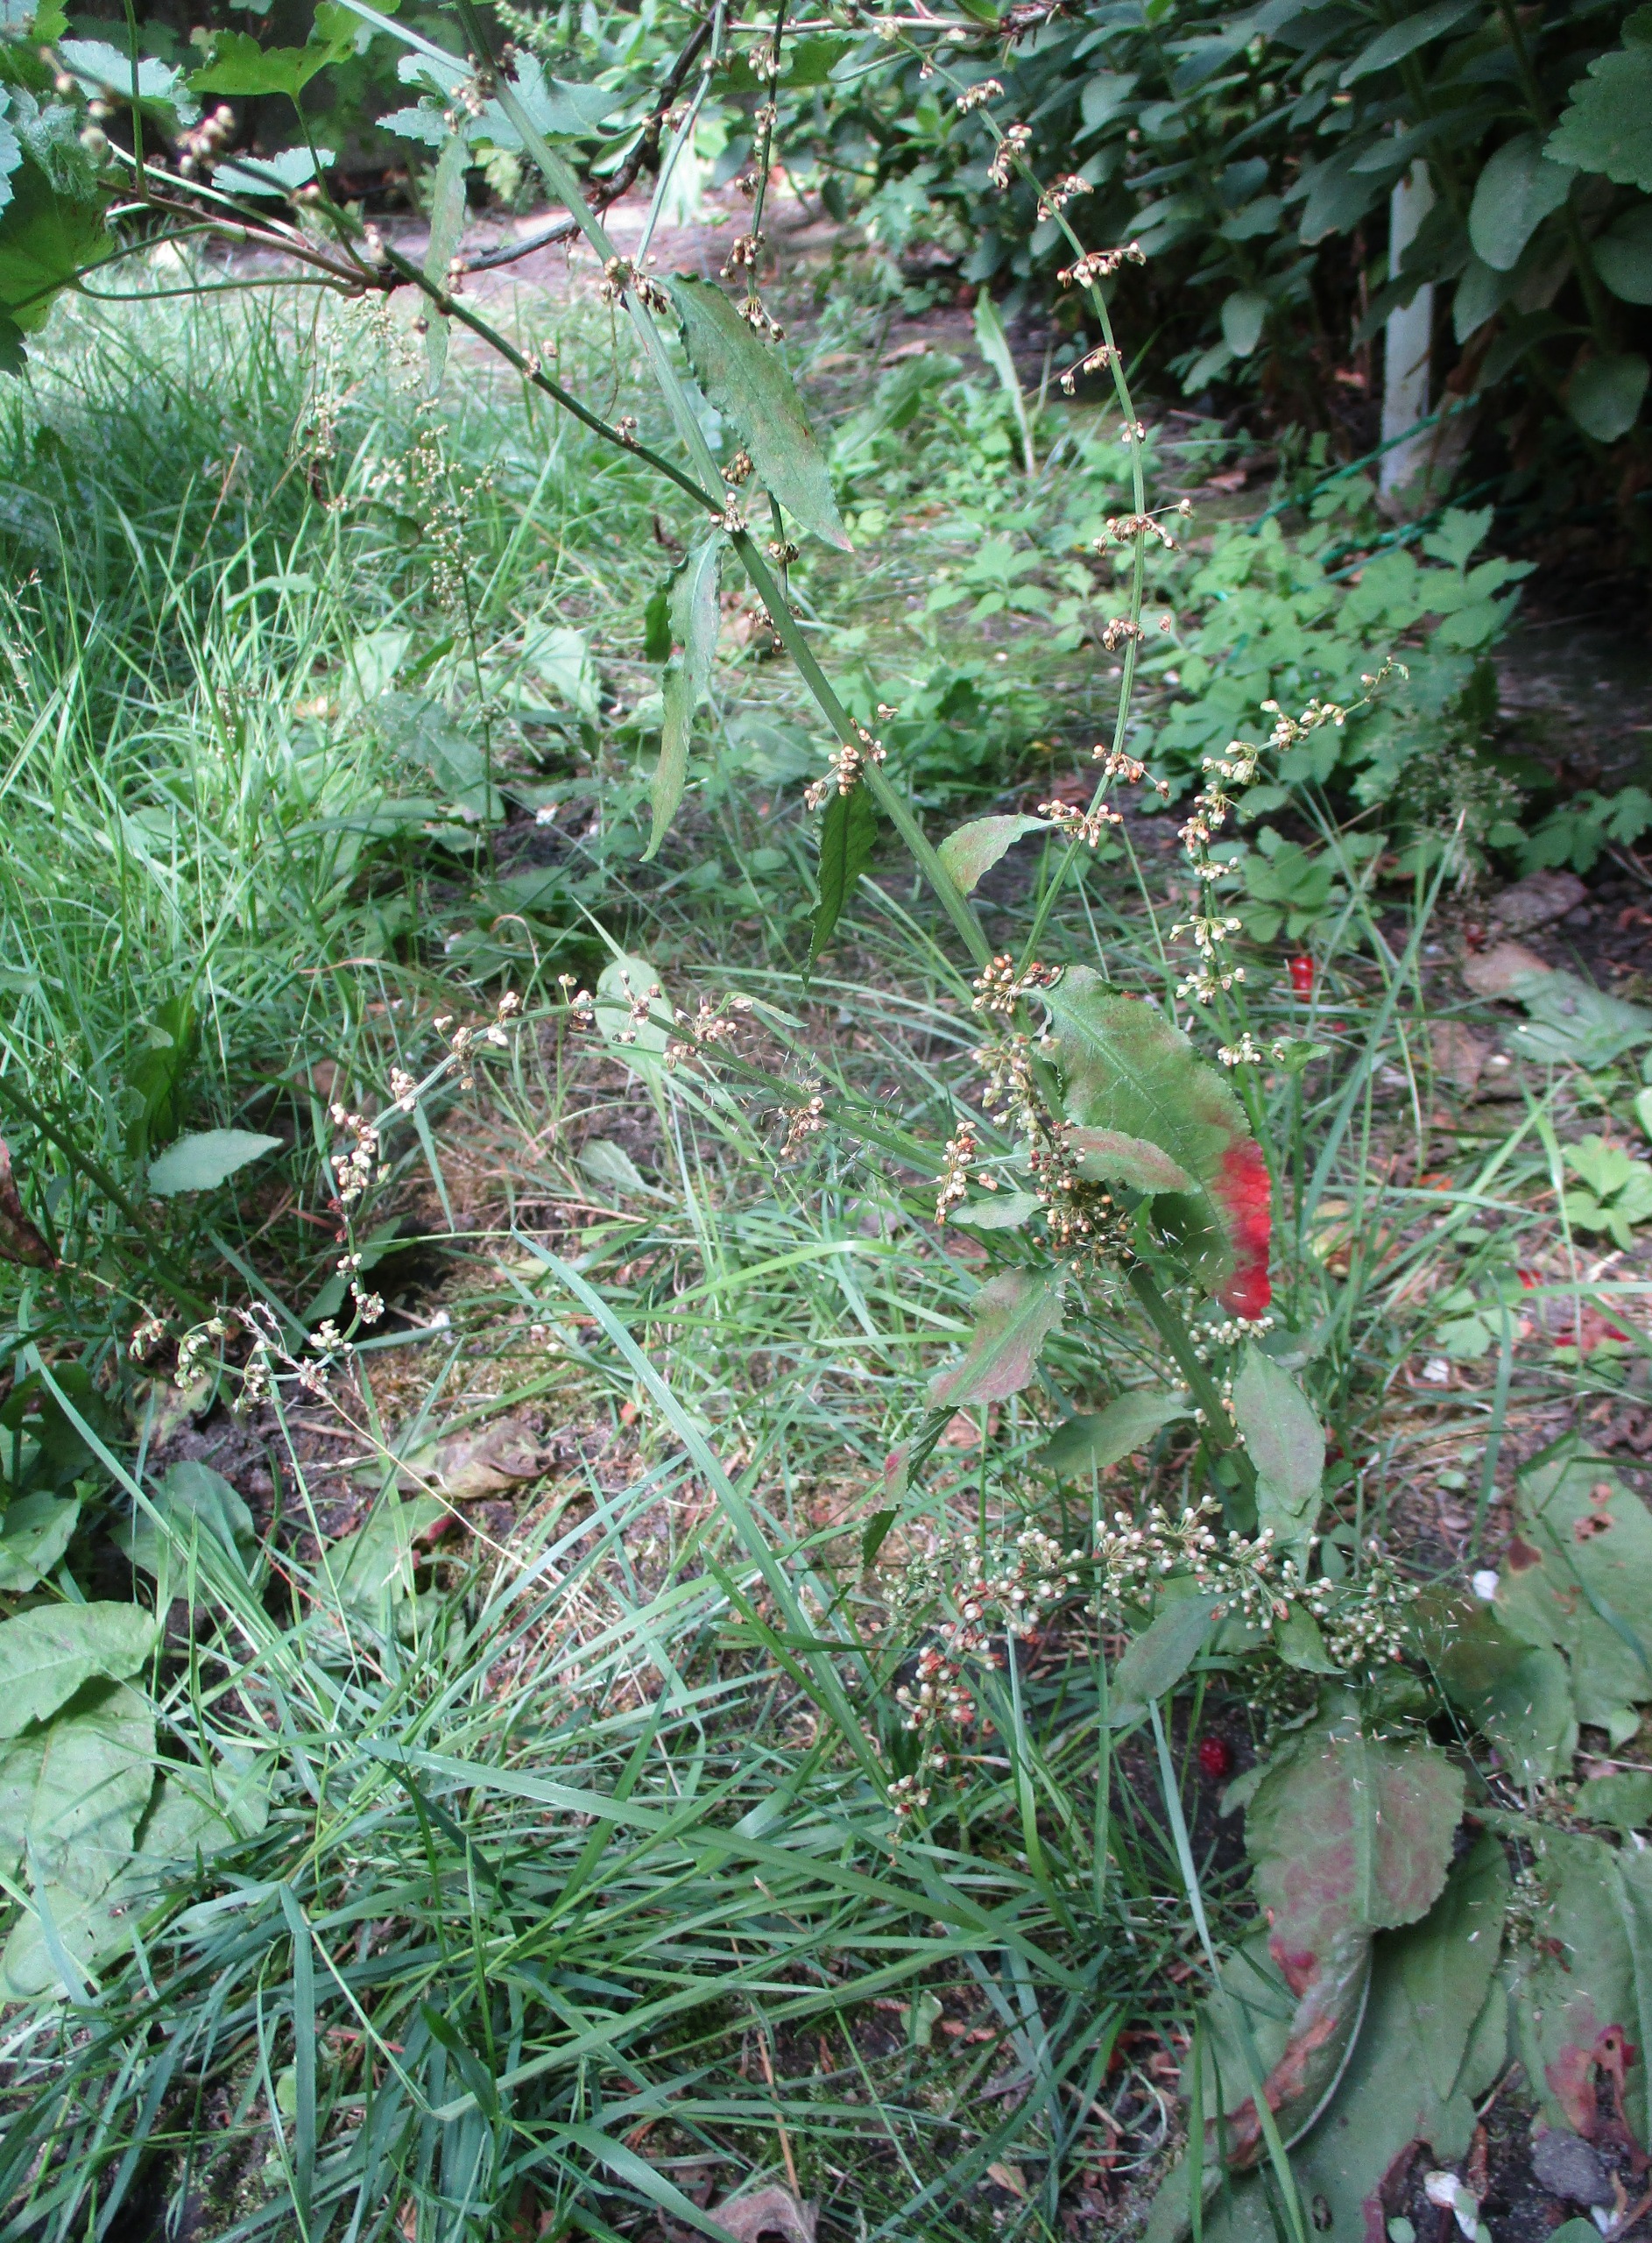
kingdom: Plantae
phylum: Tracheophyta
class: Magnoliopsida
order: Caryophyllales
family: Polygonaceae
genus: Rumex
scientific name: Rumex sanguineus
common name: Skov-skræppe
